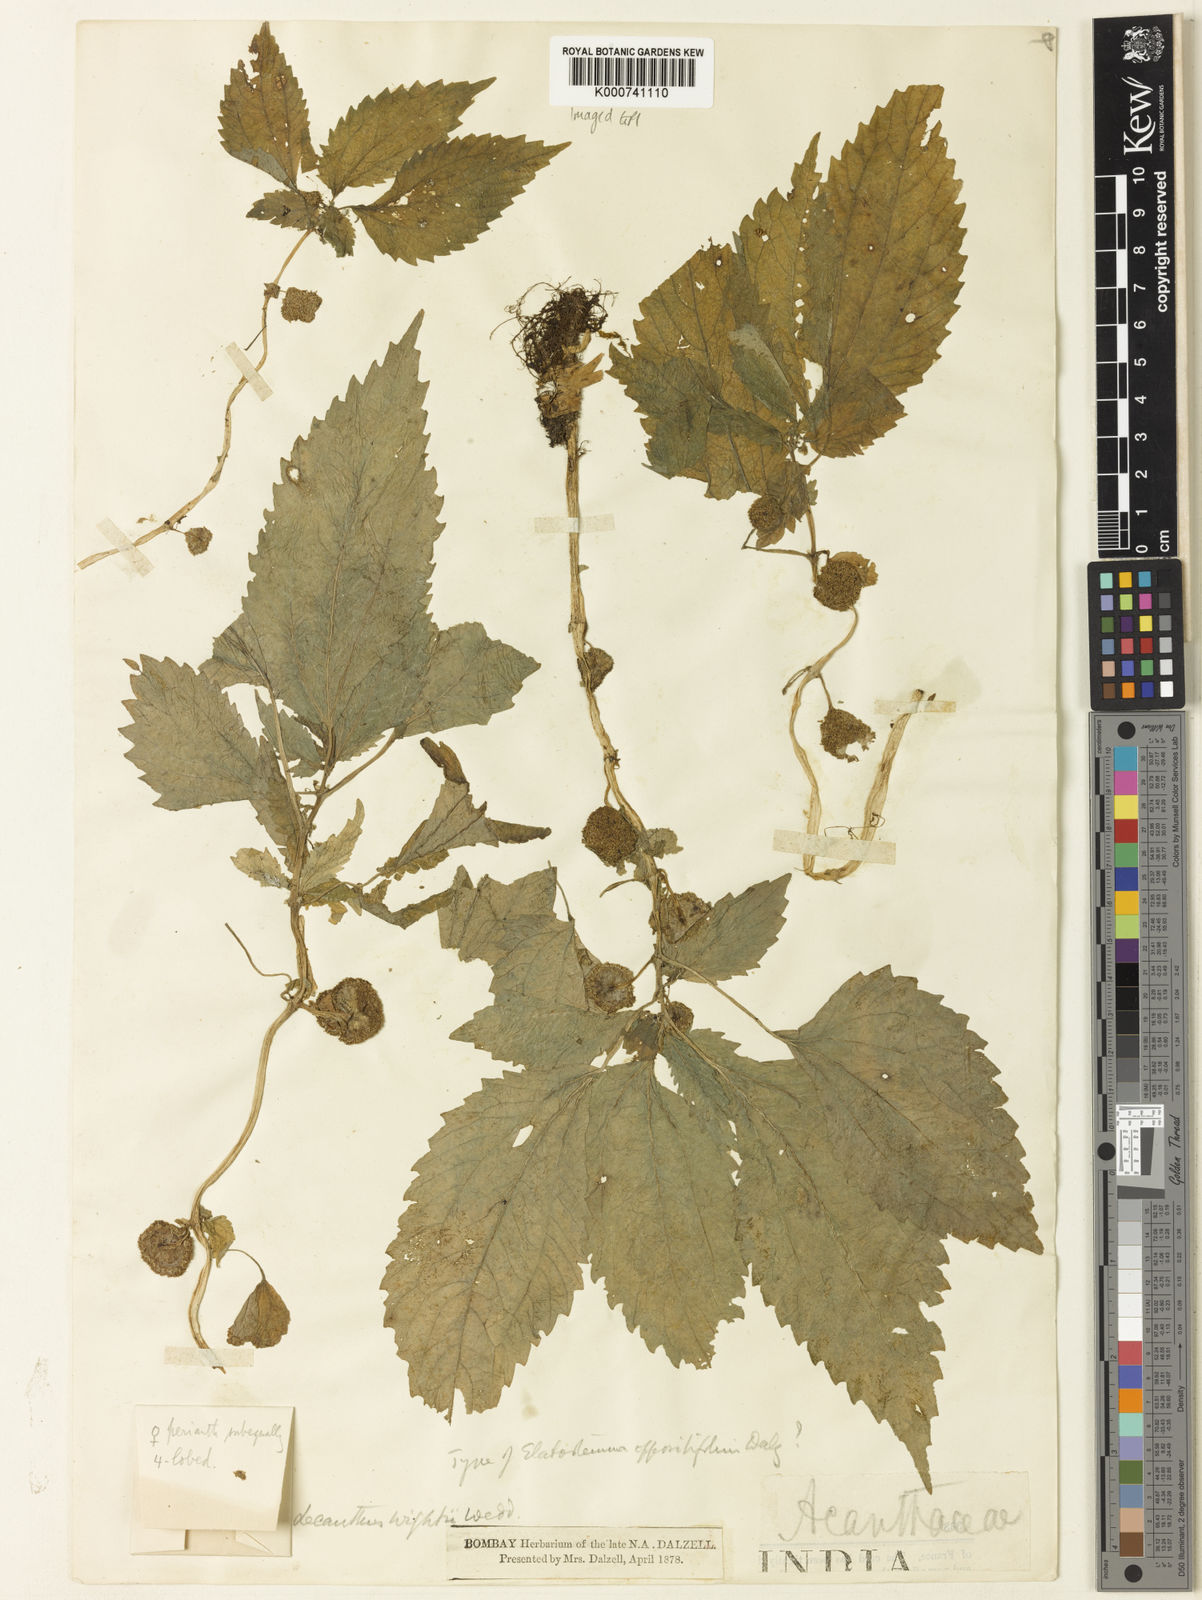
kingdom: Plantae
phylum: Tracheophyta
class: Magnoliopsida
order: Rosales
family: Urticaceae
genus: Lecanthus
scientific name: Lecanthus peduncularis
